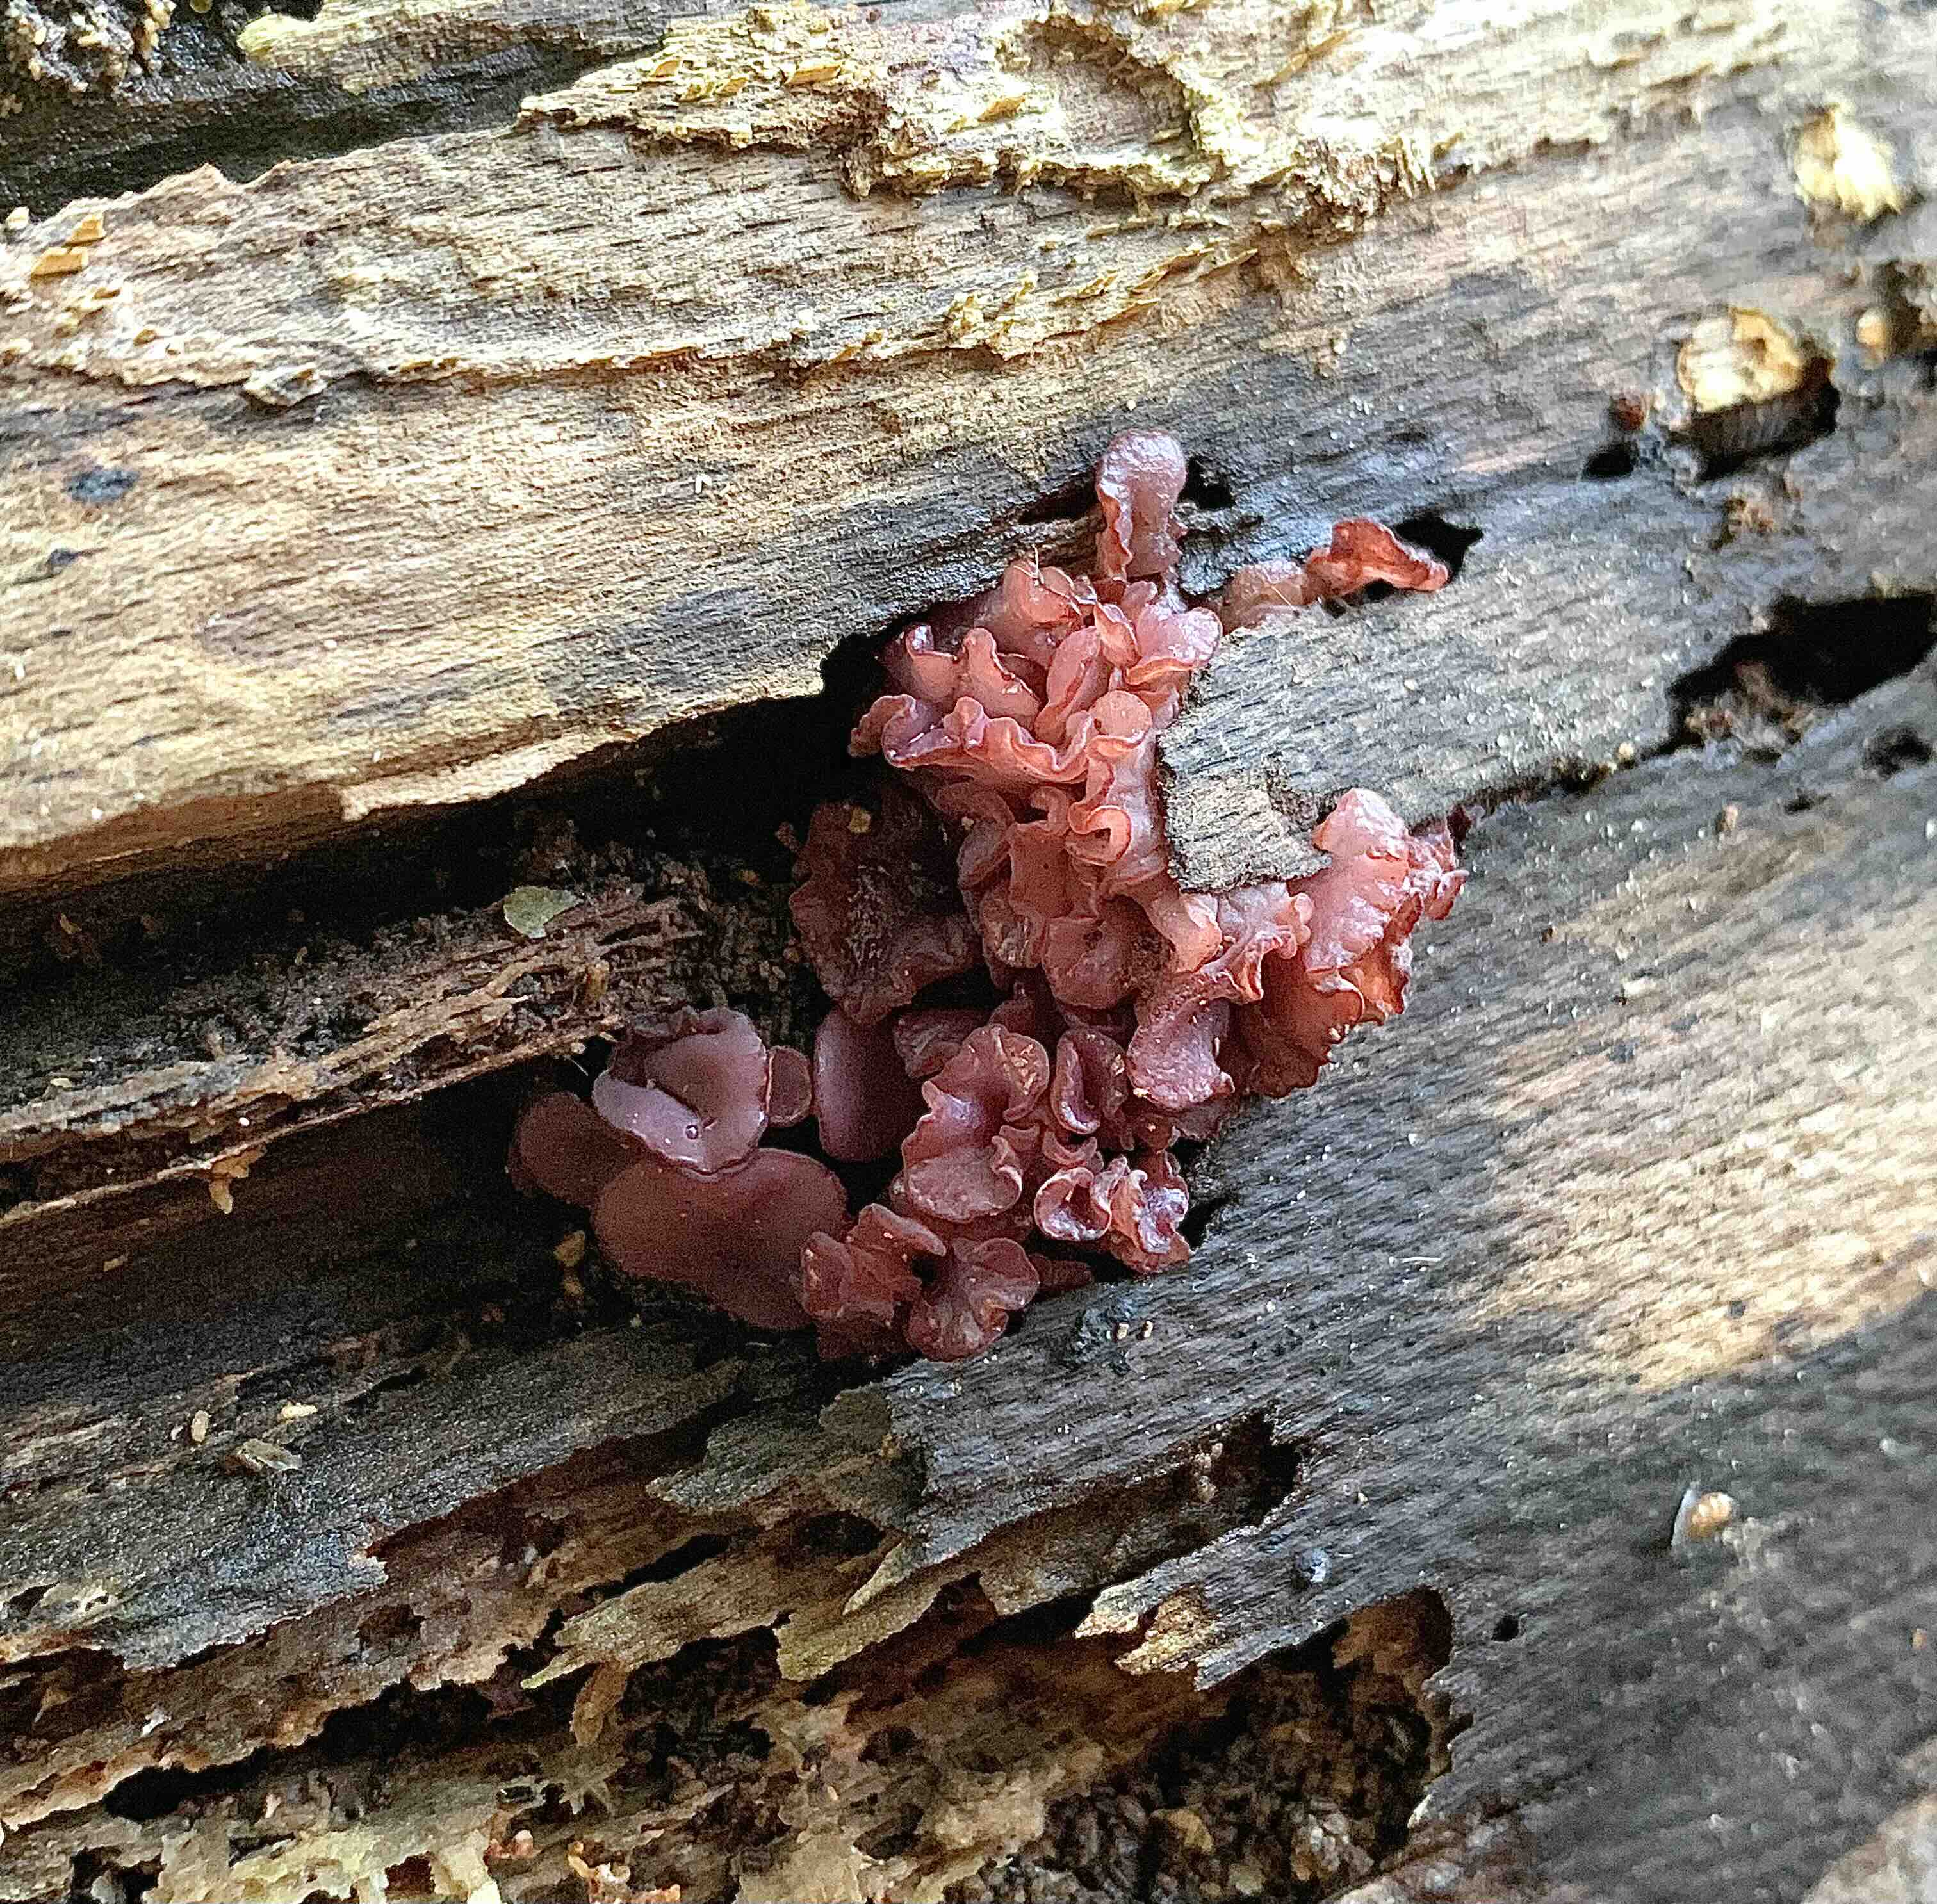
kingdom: Fungi
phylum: Ascomycota
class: Leotiomycetes
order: Helotiales
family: Gelatinodiscaceae
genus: Ascocoryne
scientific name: Ascocoryne sarcoides
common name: rødlilla sejskive
